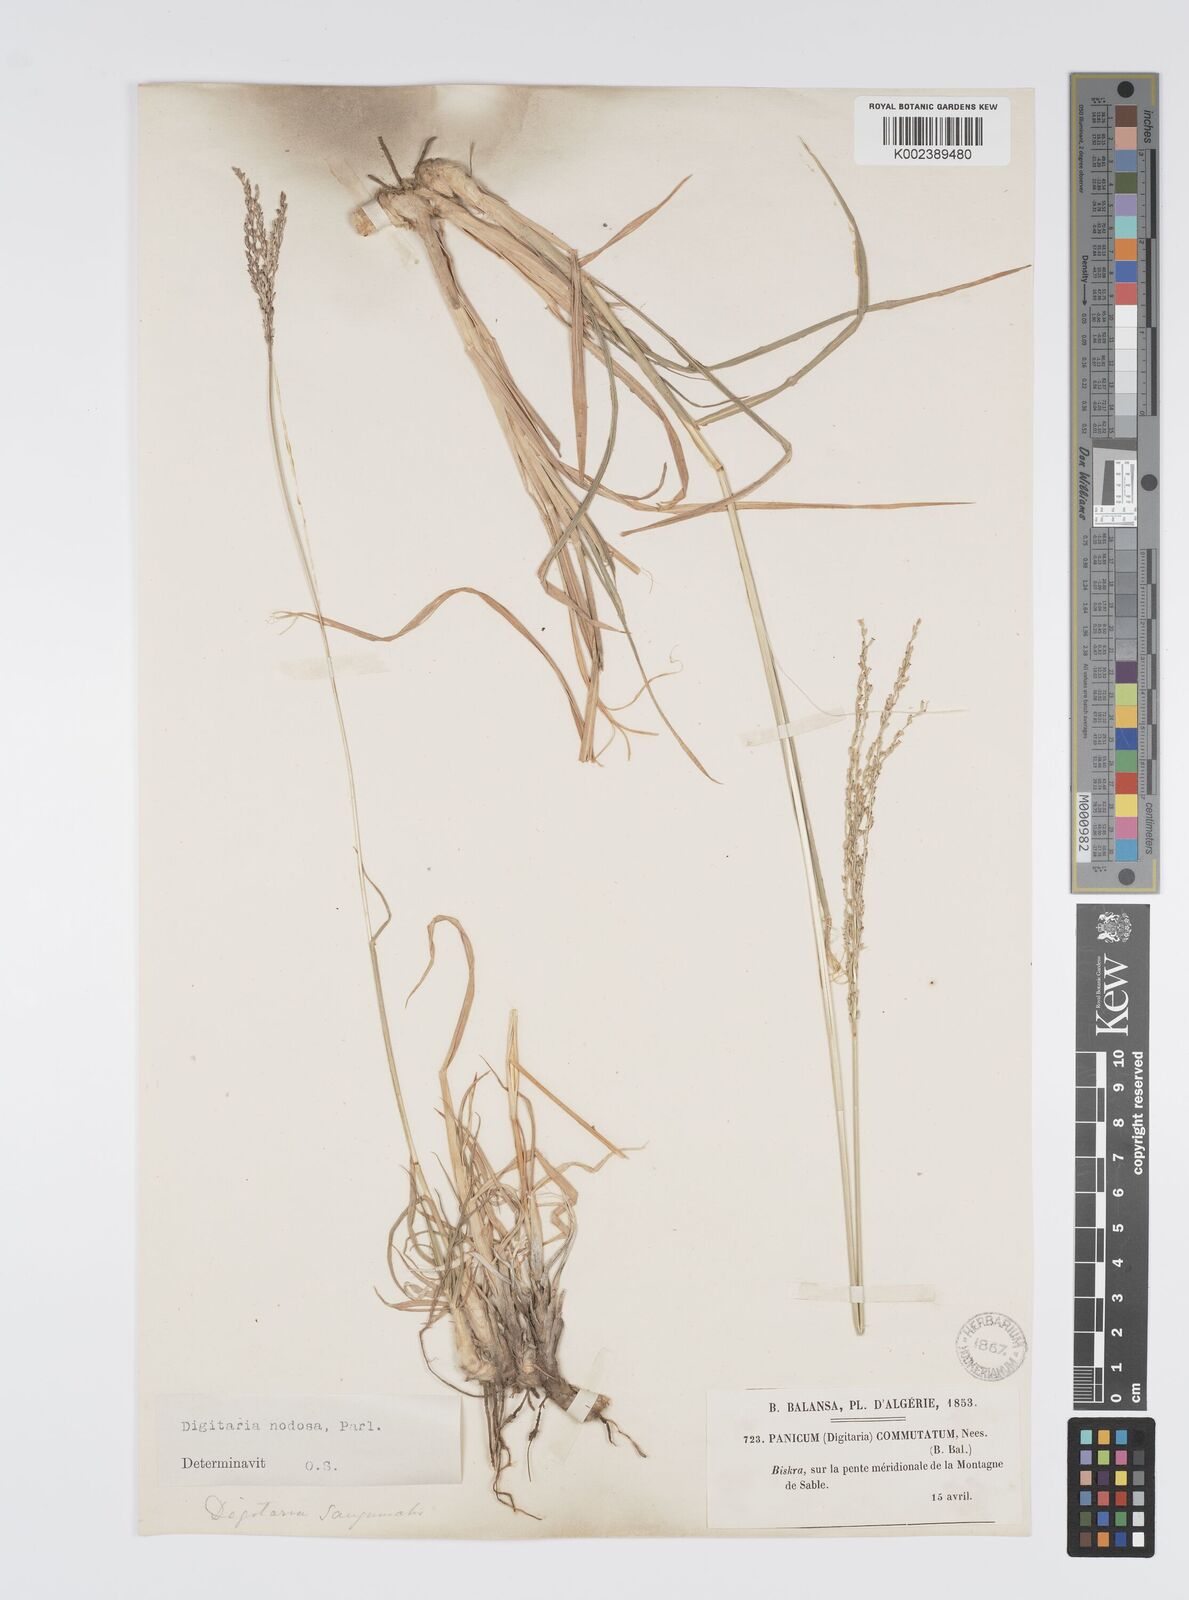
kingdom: Plantae
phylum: Tracheophyta
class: Liliopsida
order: Poales
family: Poaceae
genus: Digitaria
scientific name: Digitaria nodosa
